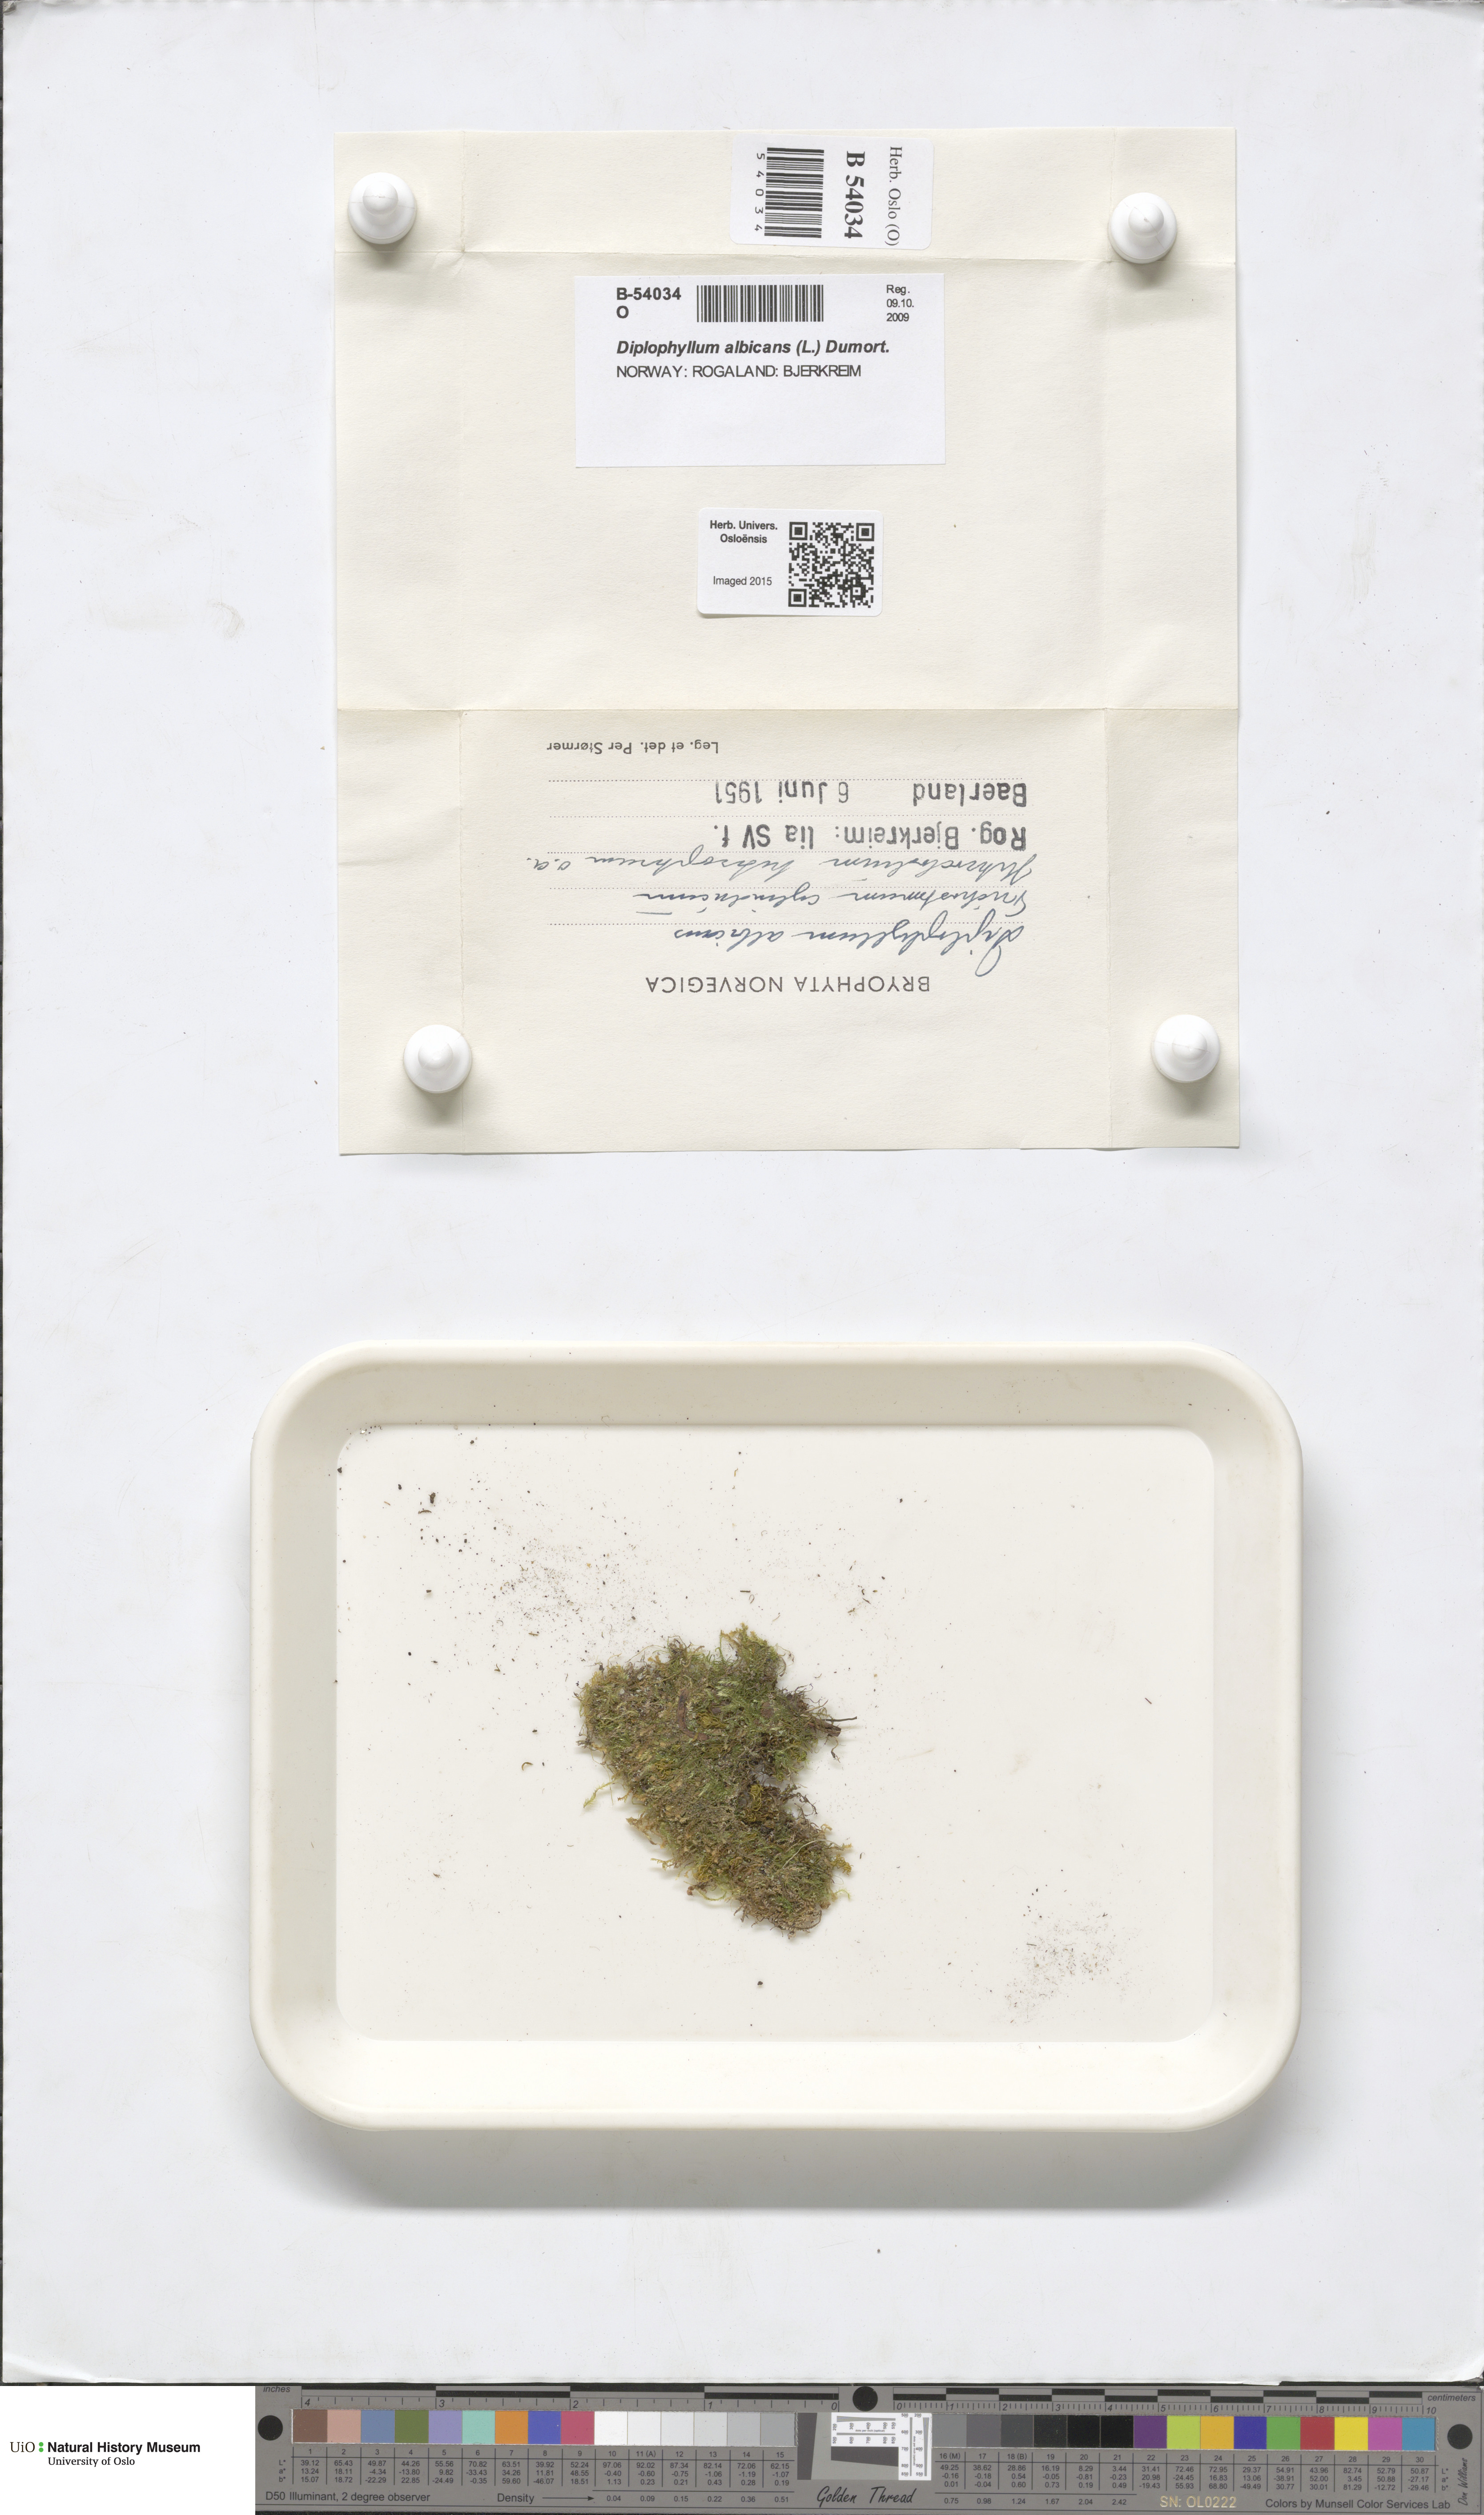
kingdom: Plantae
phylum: Marchantiophyta
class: Jungermanniopsida
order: Jungermanniales
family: Scapaniaceae
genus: Diplophyllum
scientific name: Diplophyllum albicans
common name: White earwort
